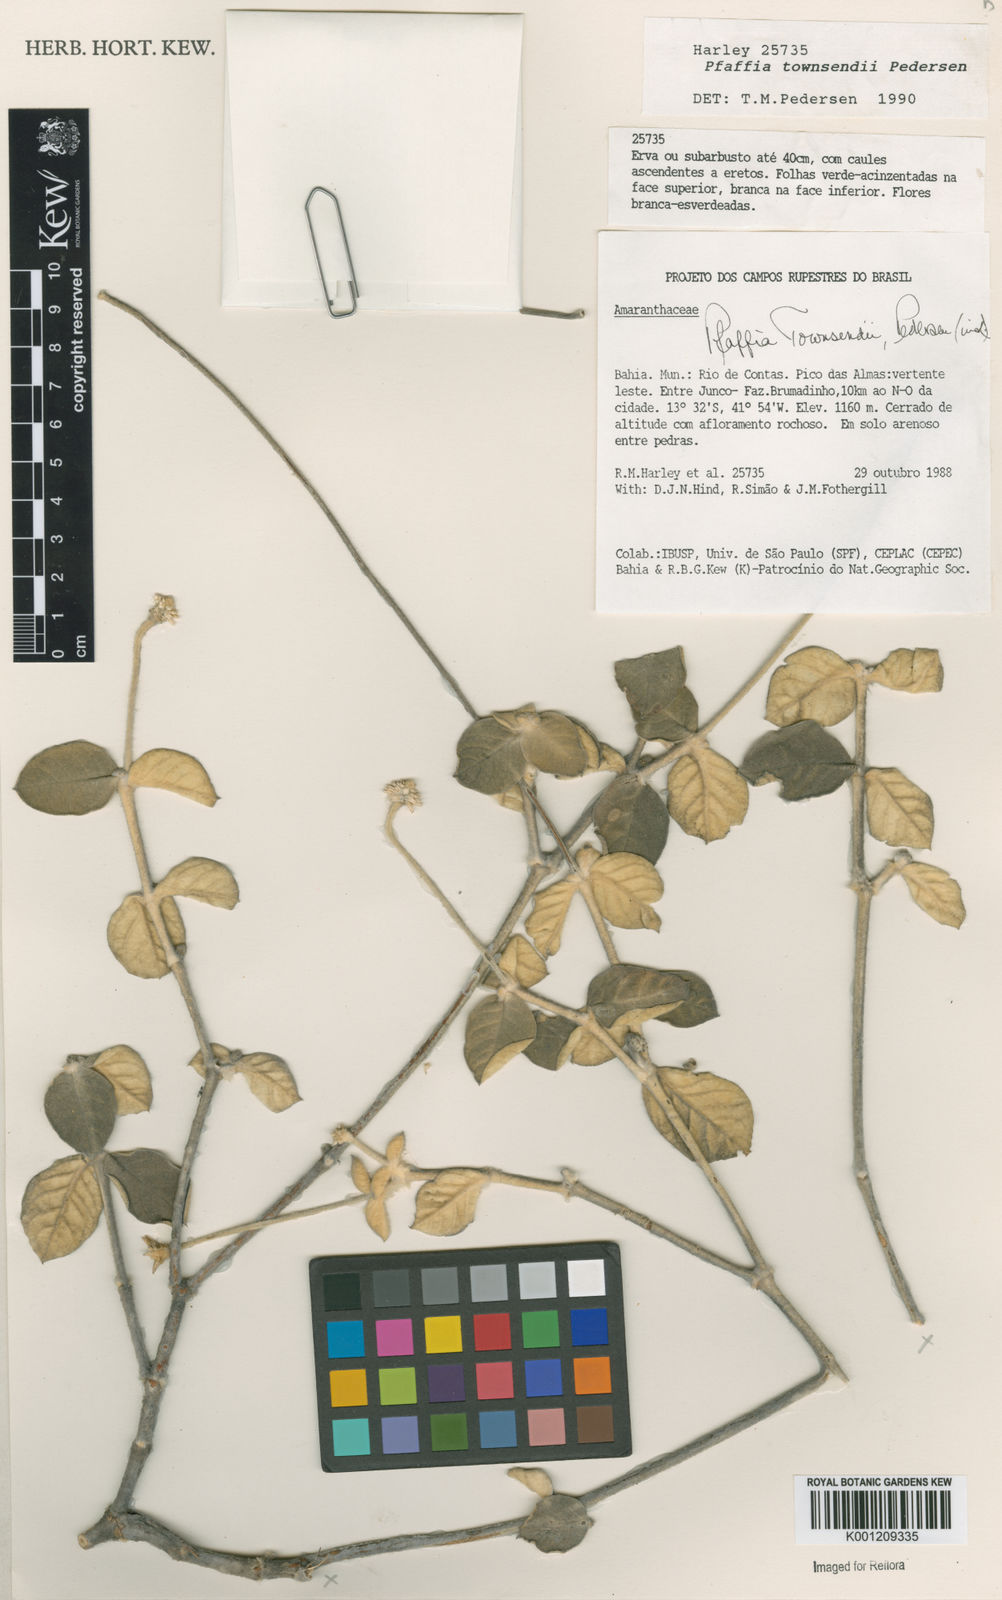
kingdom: Plantae
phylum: Tracheophyta
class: Magnoliopsida
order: Caryophyllales
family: Amaranthaceae
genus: Pfaffia
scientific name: Pfaffia townsendii
